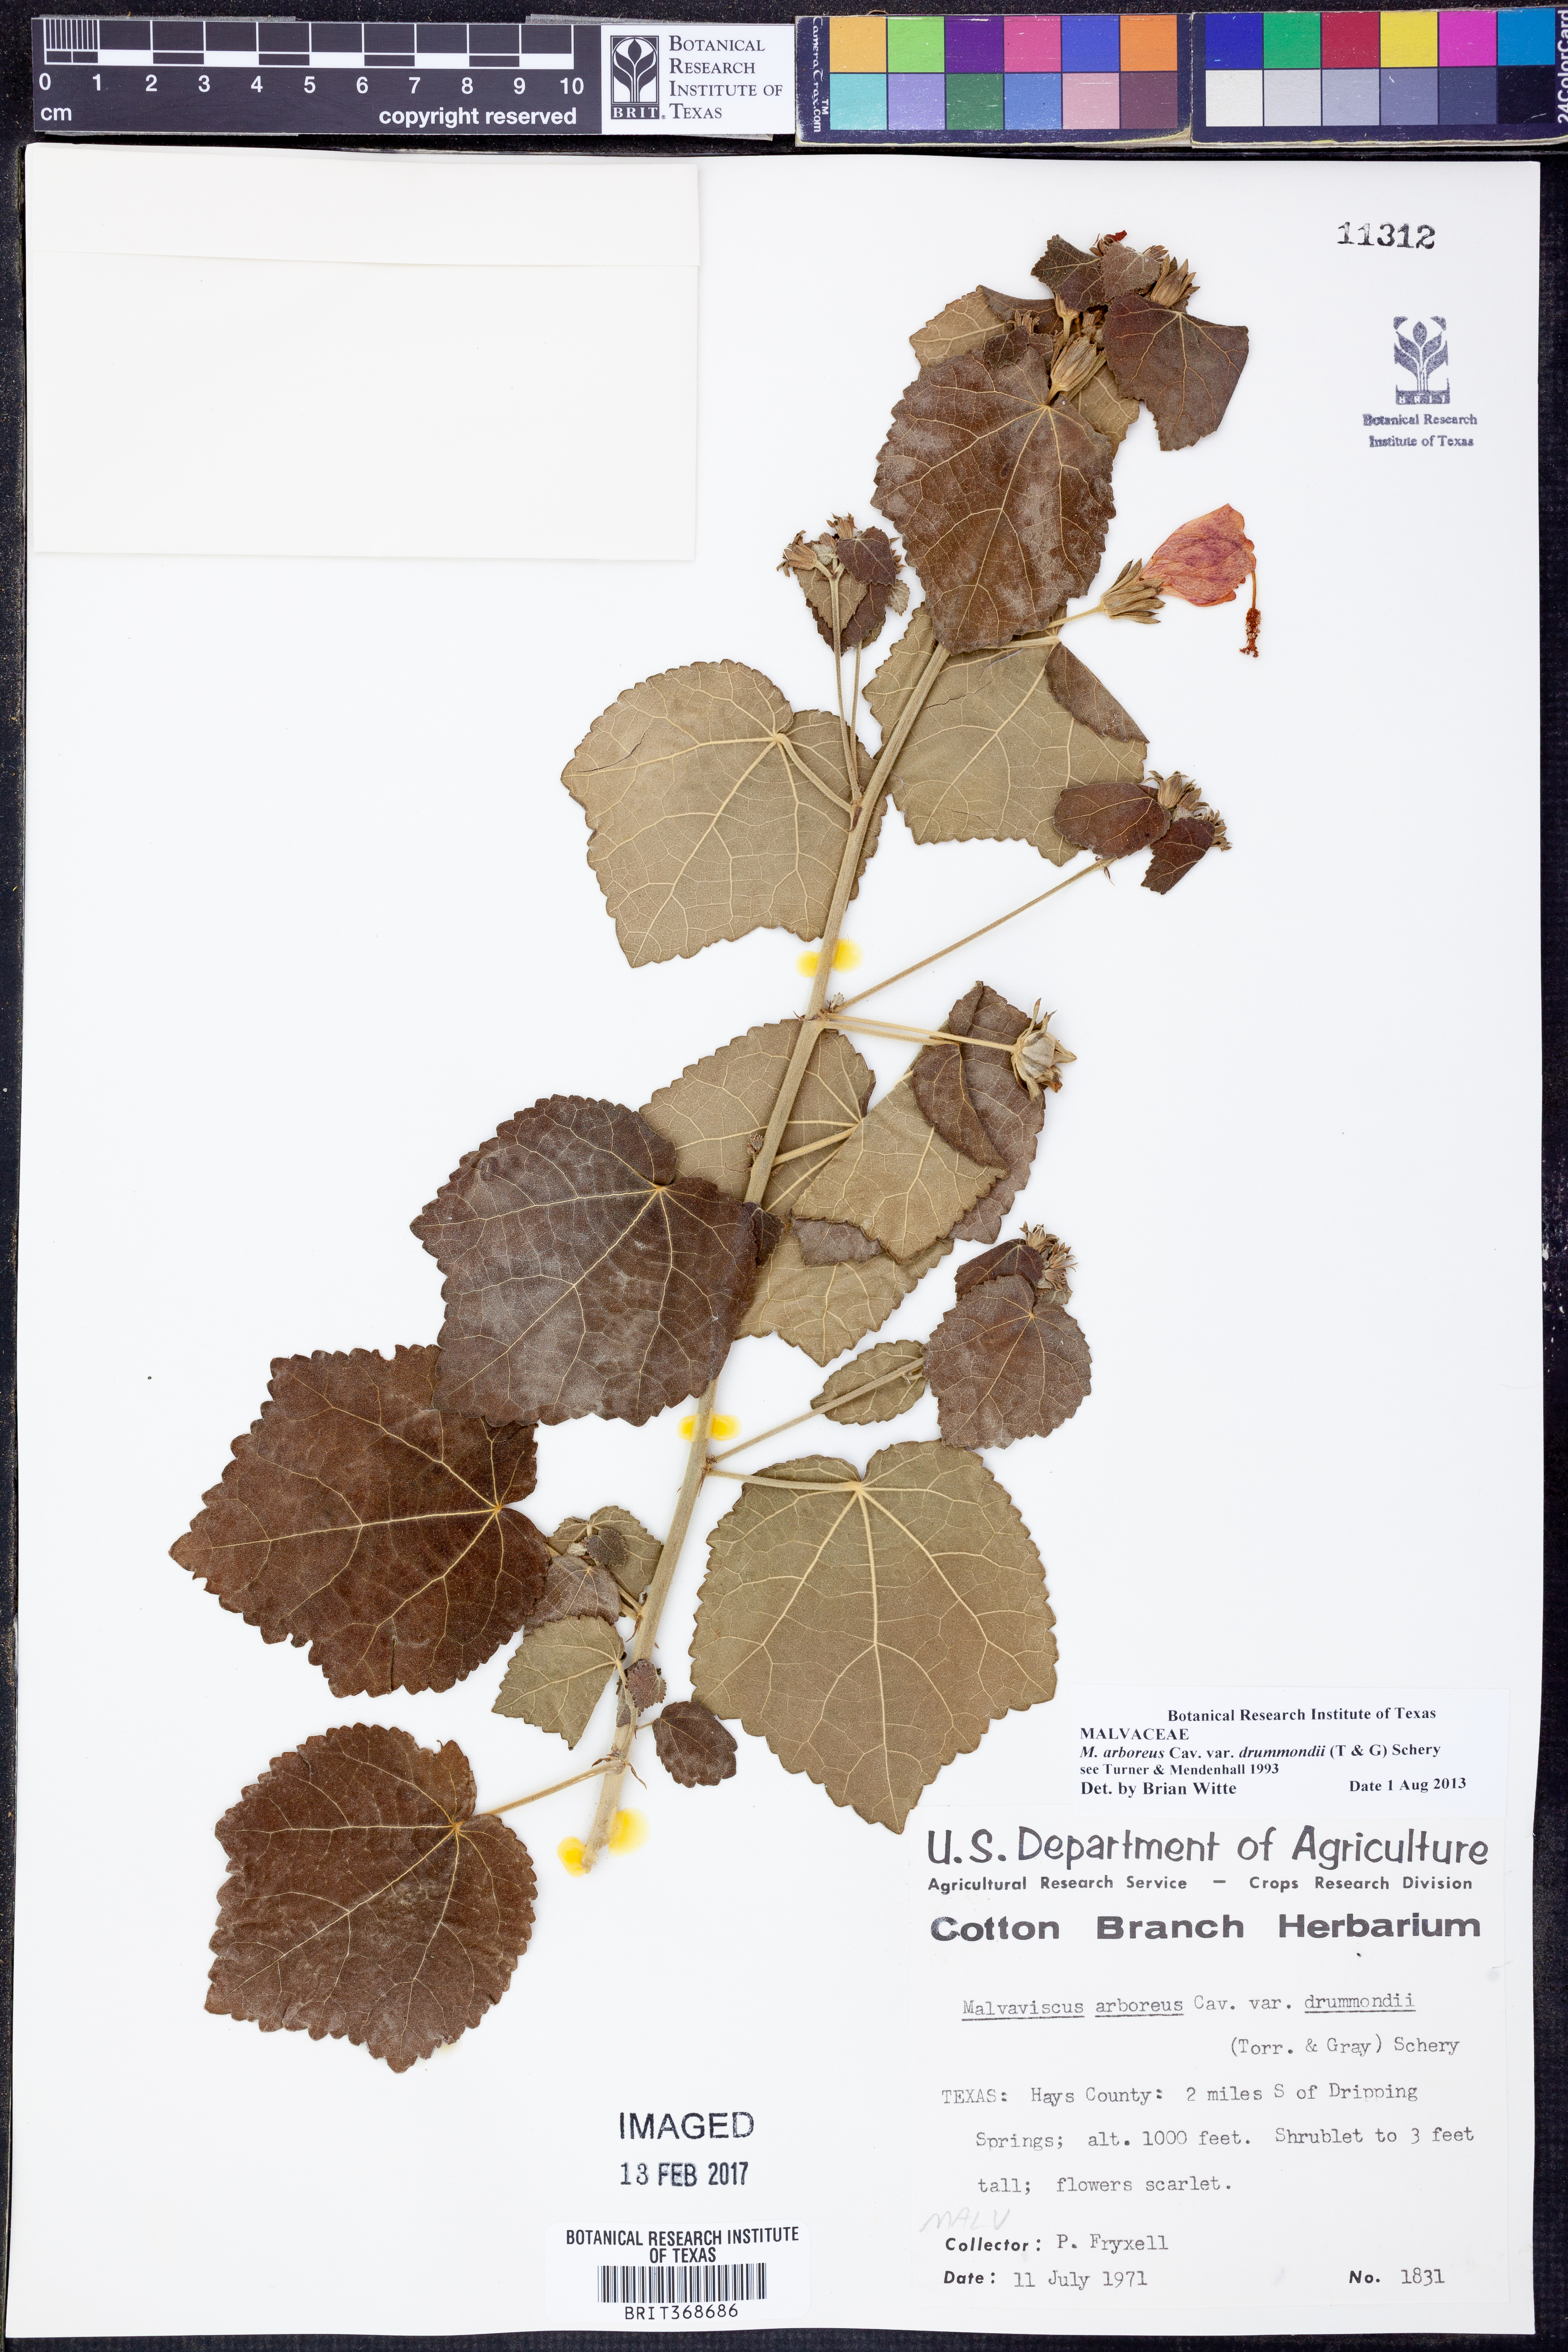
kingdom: Plantae
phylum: Tracheophyta
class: Magnoliopsida
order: Malvales
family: Malvaceae
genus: Malvaviscus
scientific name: Malvaviscus arboreus
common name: Wax mallow
